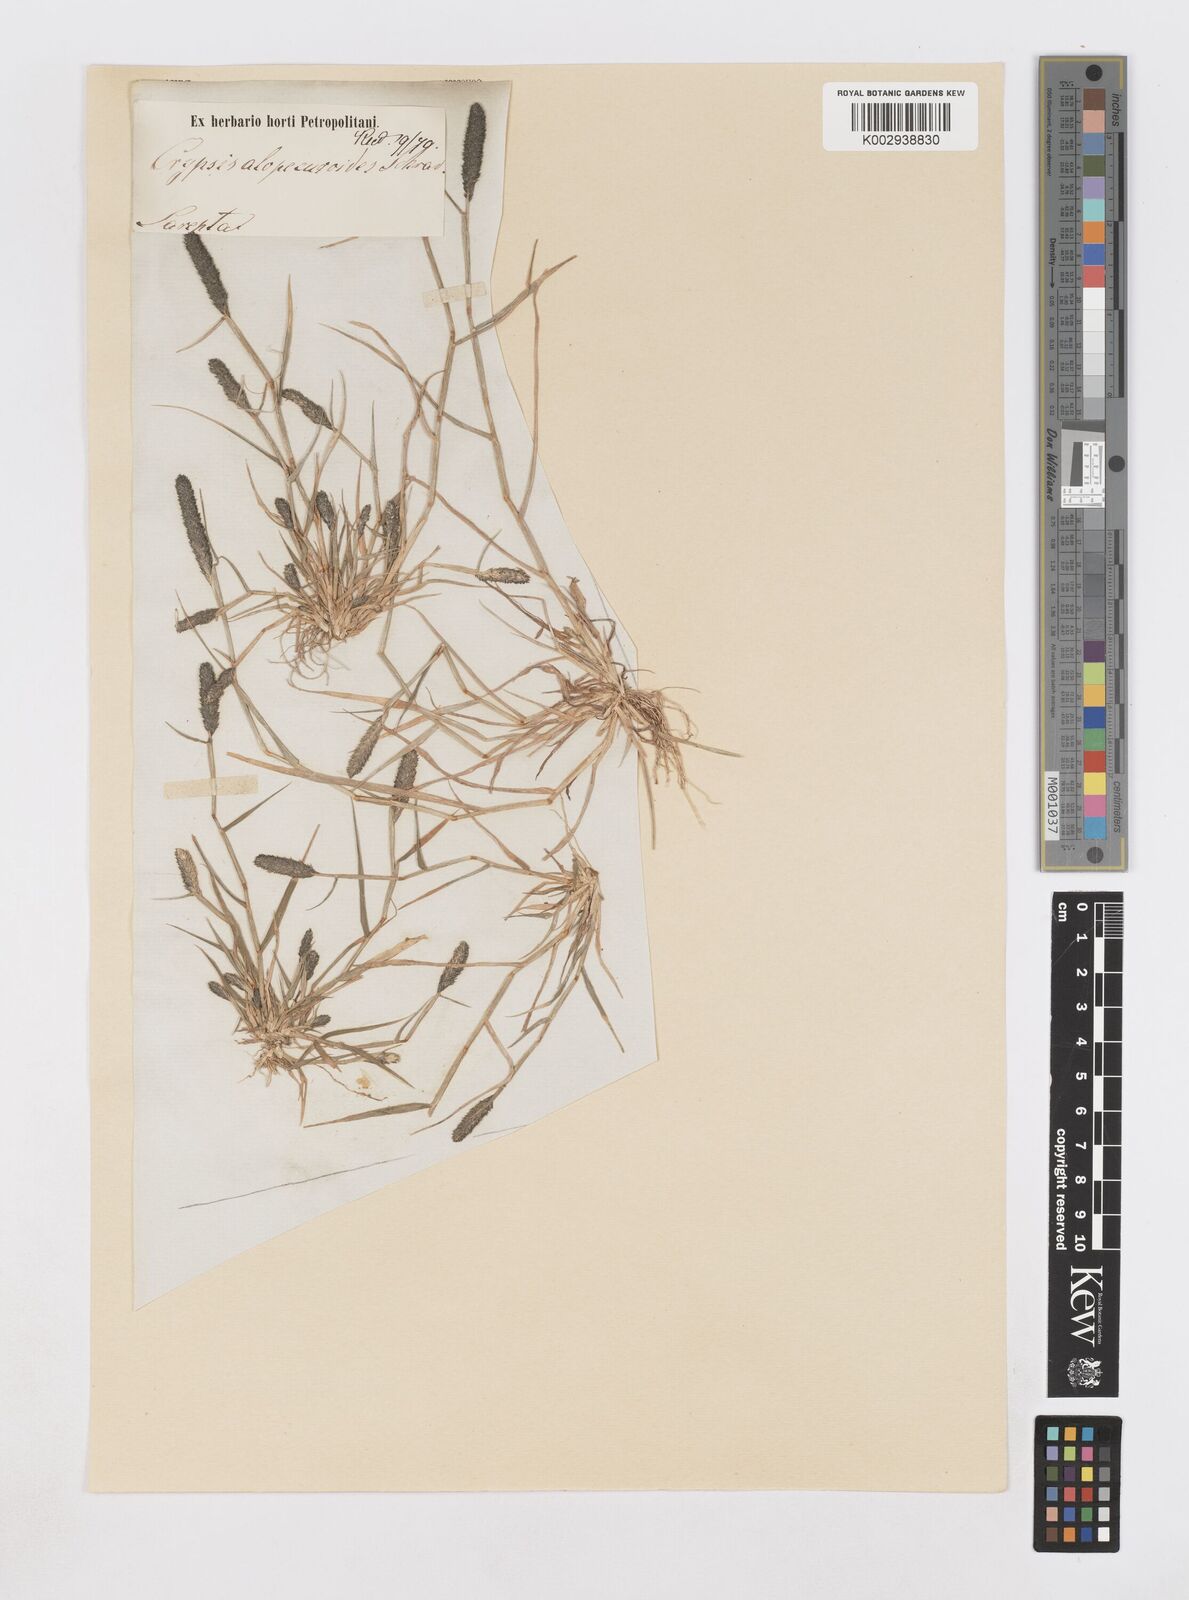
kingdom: Plantae
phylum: Tracheophyta
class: Liliopsida
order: Poales
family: Poaceae
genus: Sporobolus
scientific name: Sporobolus alopecuroides
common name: Foxtail pricklegrass
